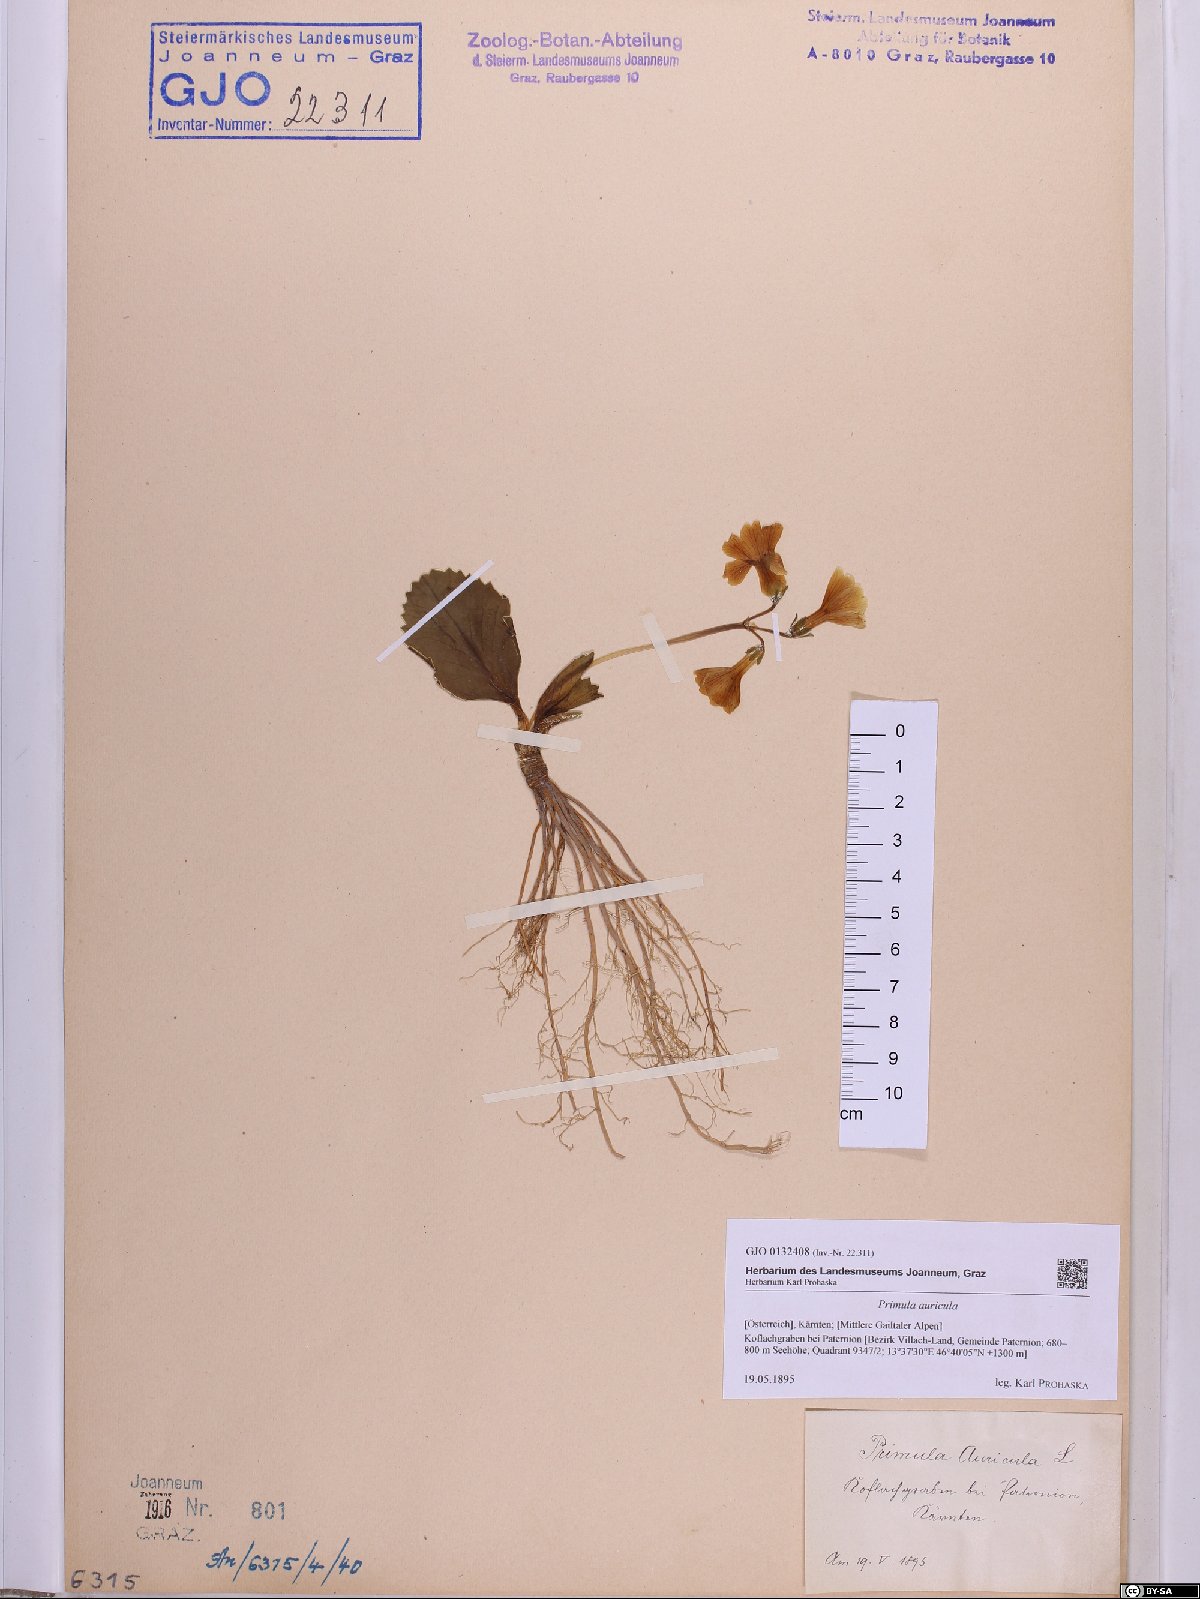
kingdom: Plantae
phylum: Tracheophyta
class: Magnoliopsida
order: Ericales
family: Primulaceae
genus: Primula
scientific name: Primula auricula
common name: Auricula
